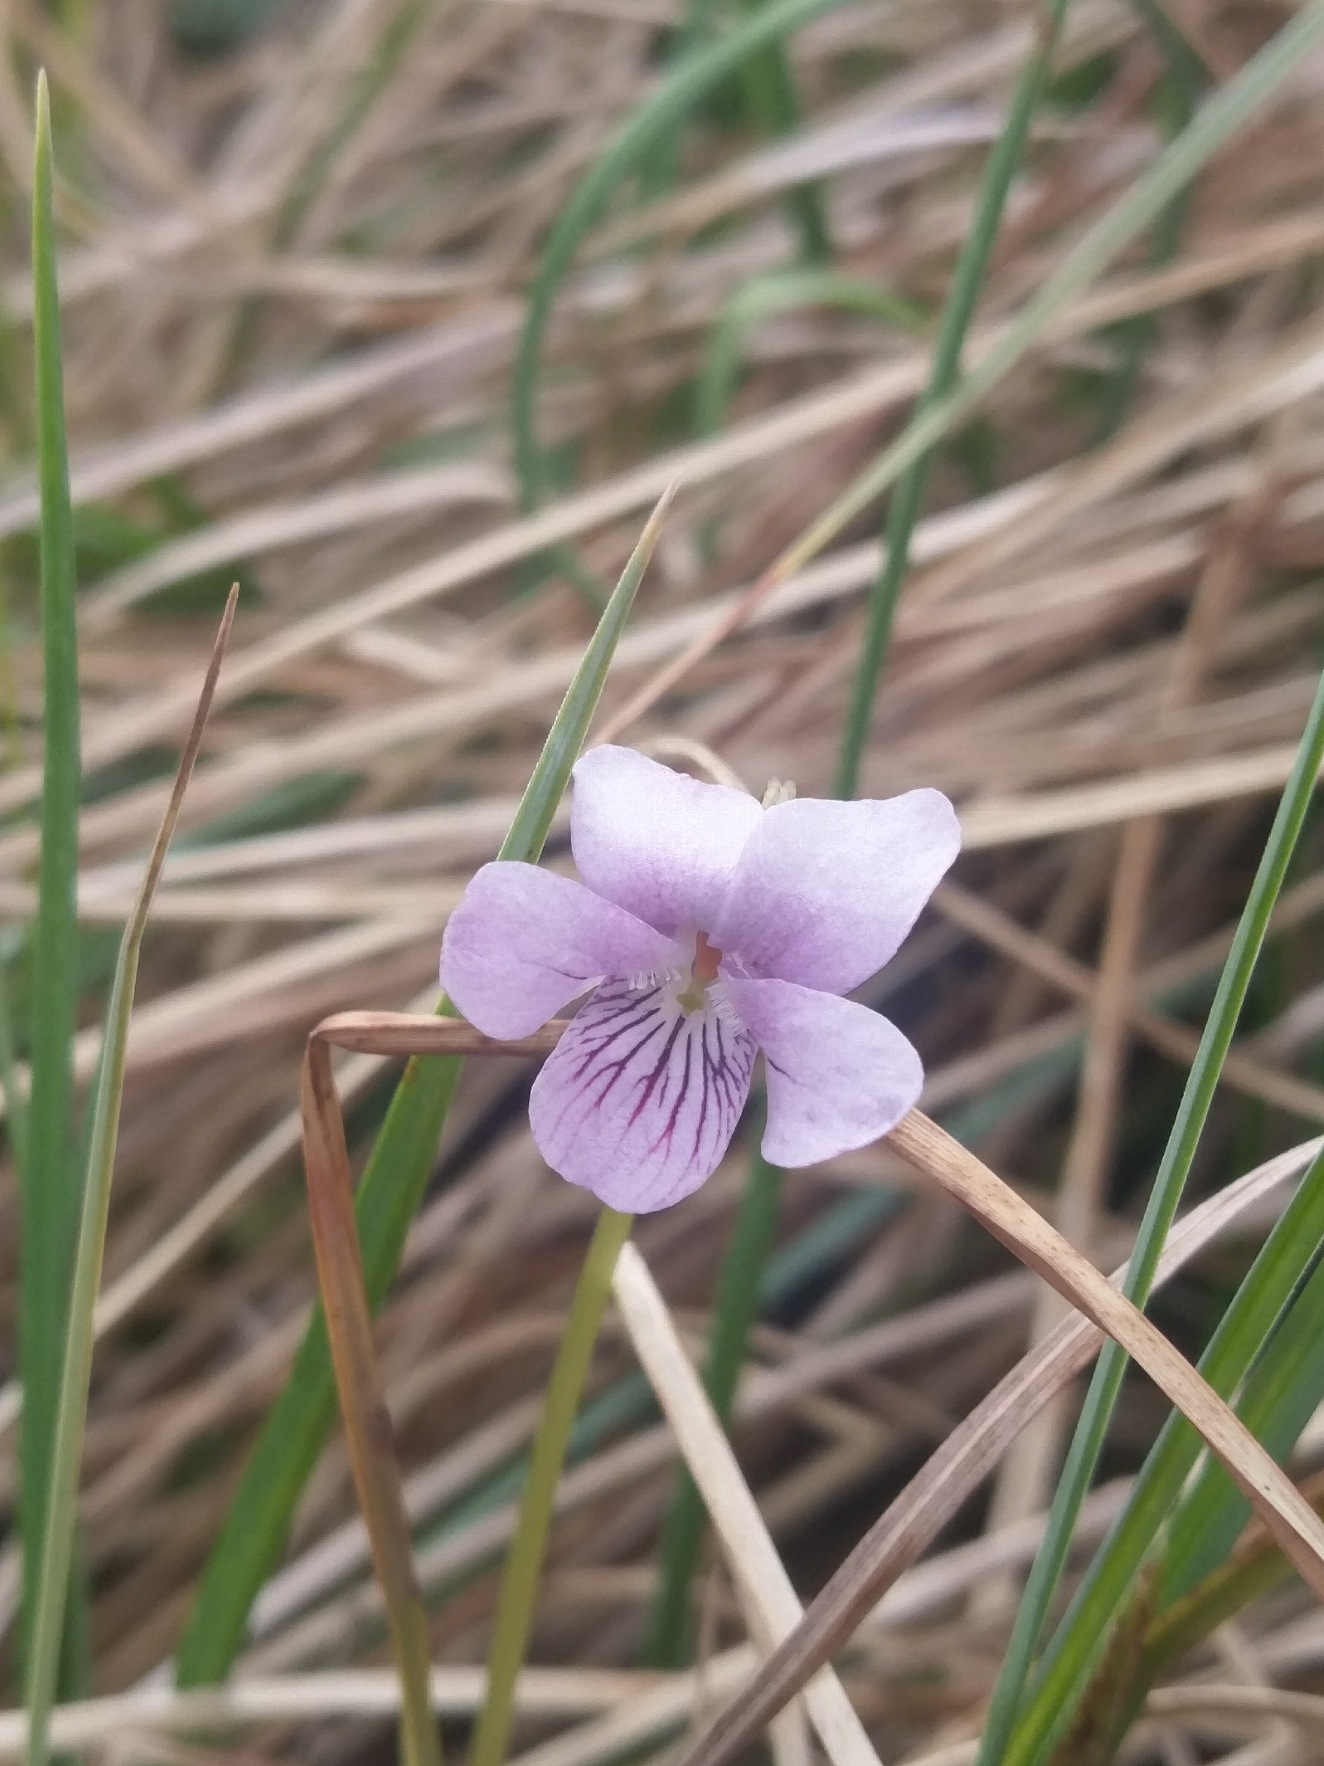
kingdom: Plantae
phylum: Tracheophyta
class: Magnoliopsida
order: Malpighiales
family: Violaceae
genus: Viola
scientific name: Viola palustris
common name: Eng-viol
